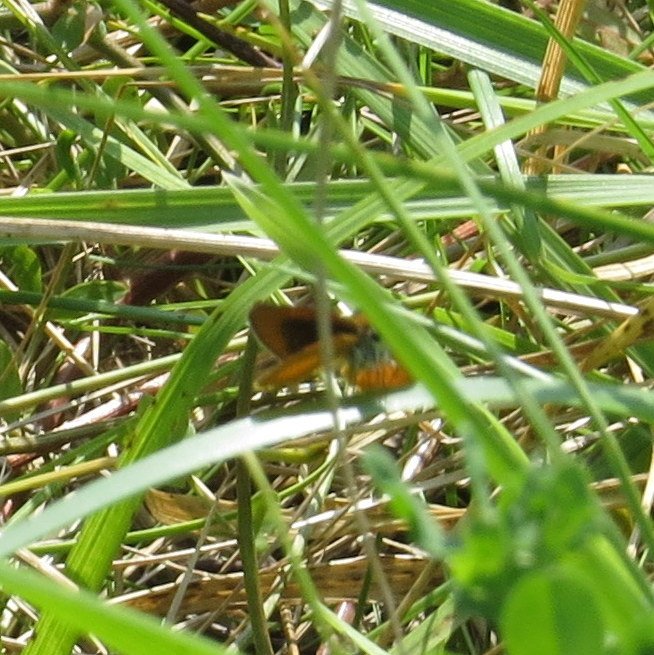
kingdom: Animalia
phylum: Arthropoda
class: Insecta
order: Lepidoptera
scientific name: Lepidoptera
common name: Butterflies
